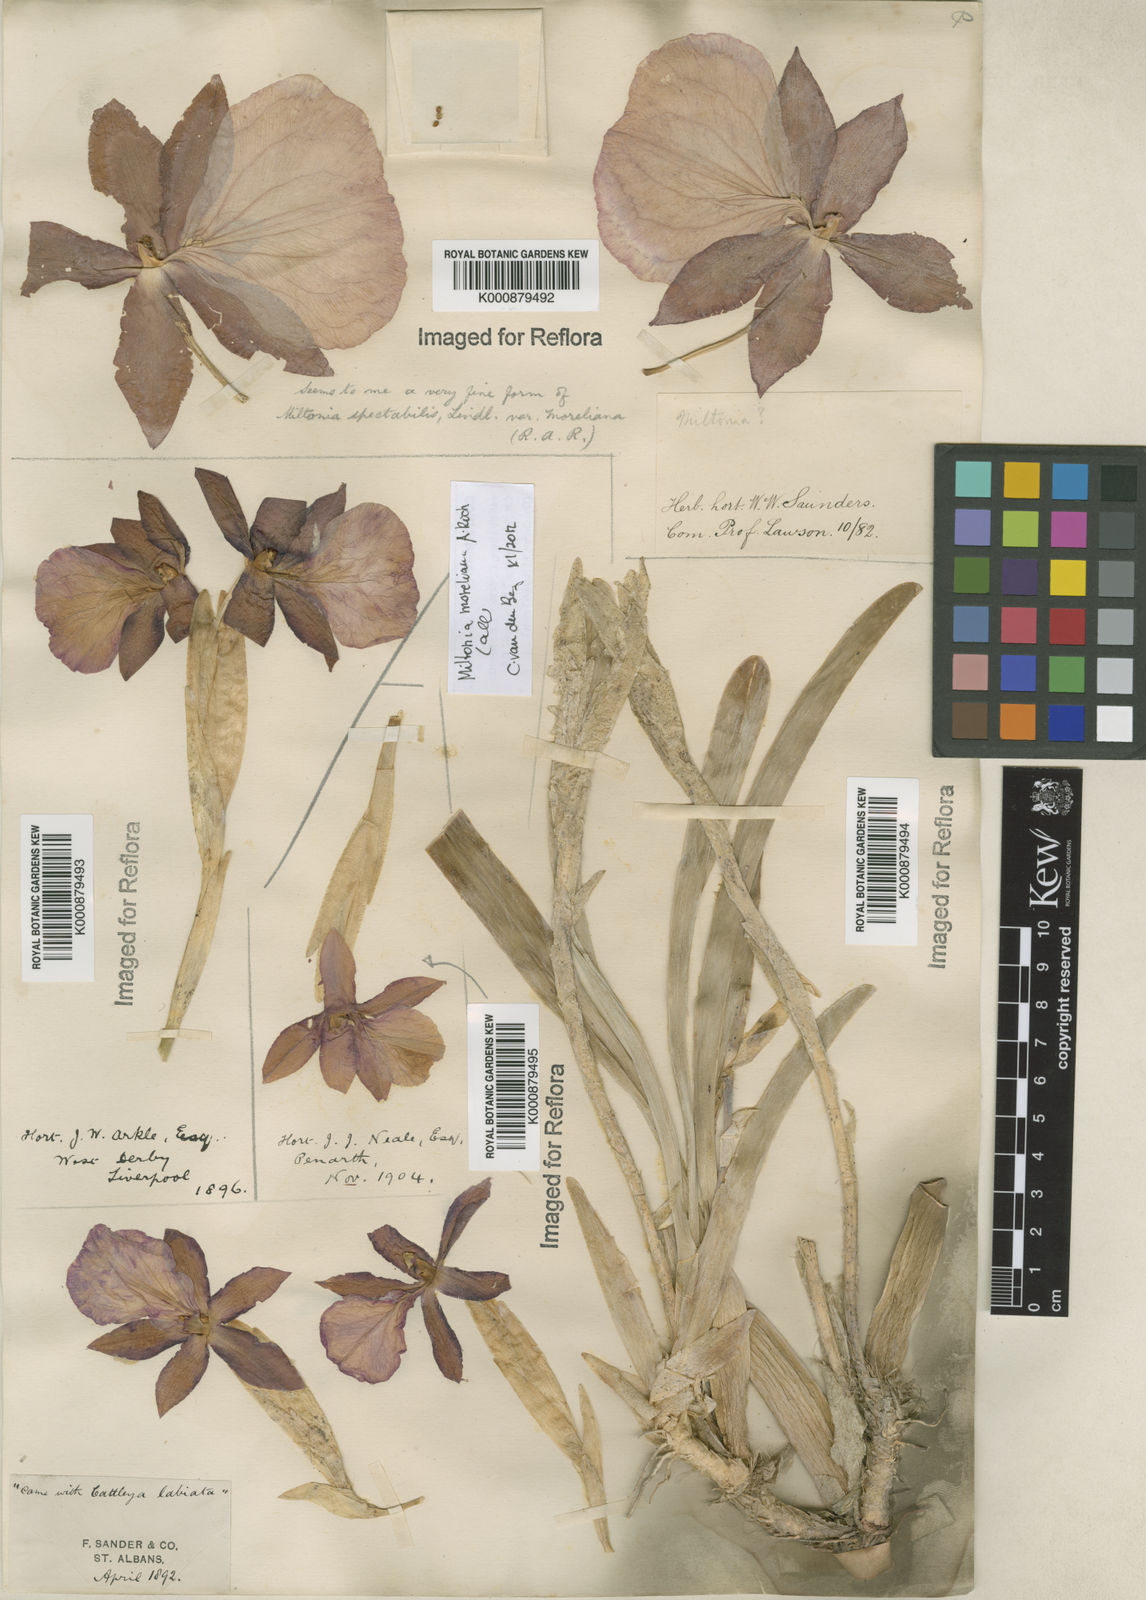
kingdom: Plantae
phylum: Tracheophyta
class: Liliopsida
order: Asparagales
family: Orchidaceae
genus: Miltonia
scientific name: Miltonia moreliana
